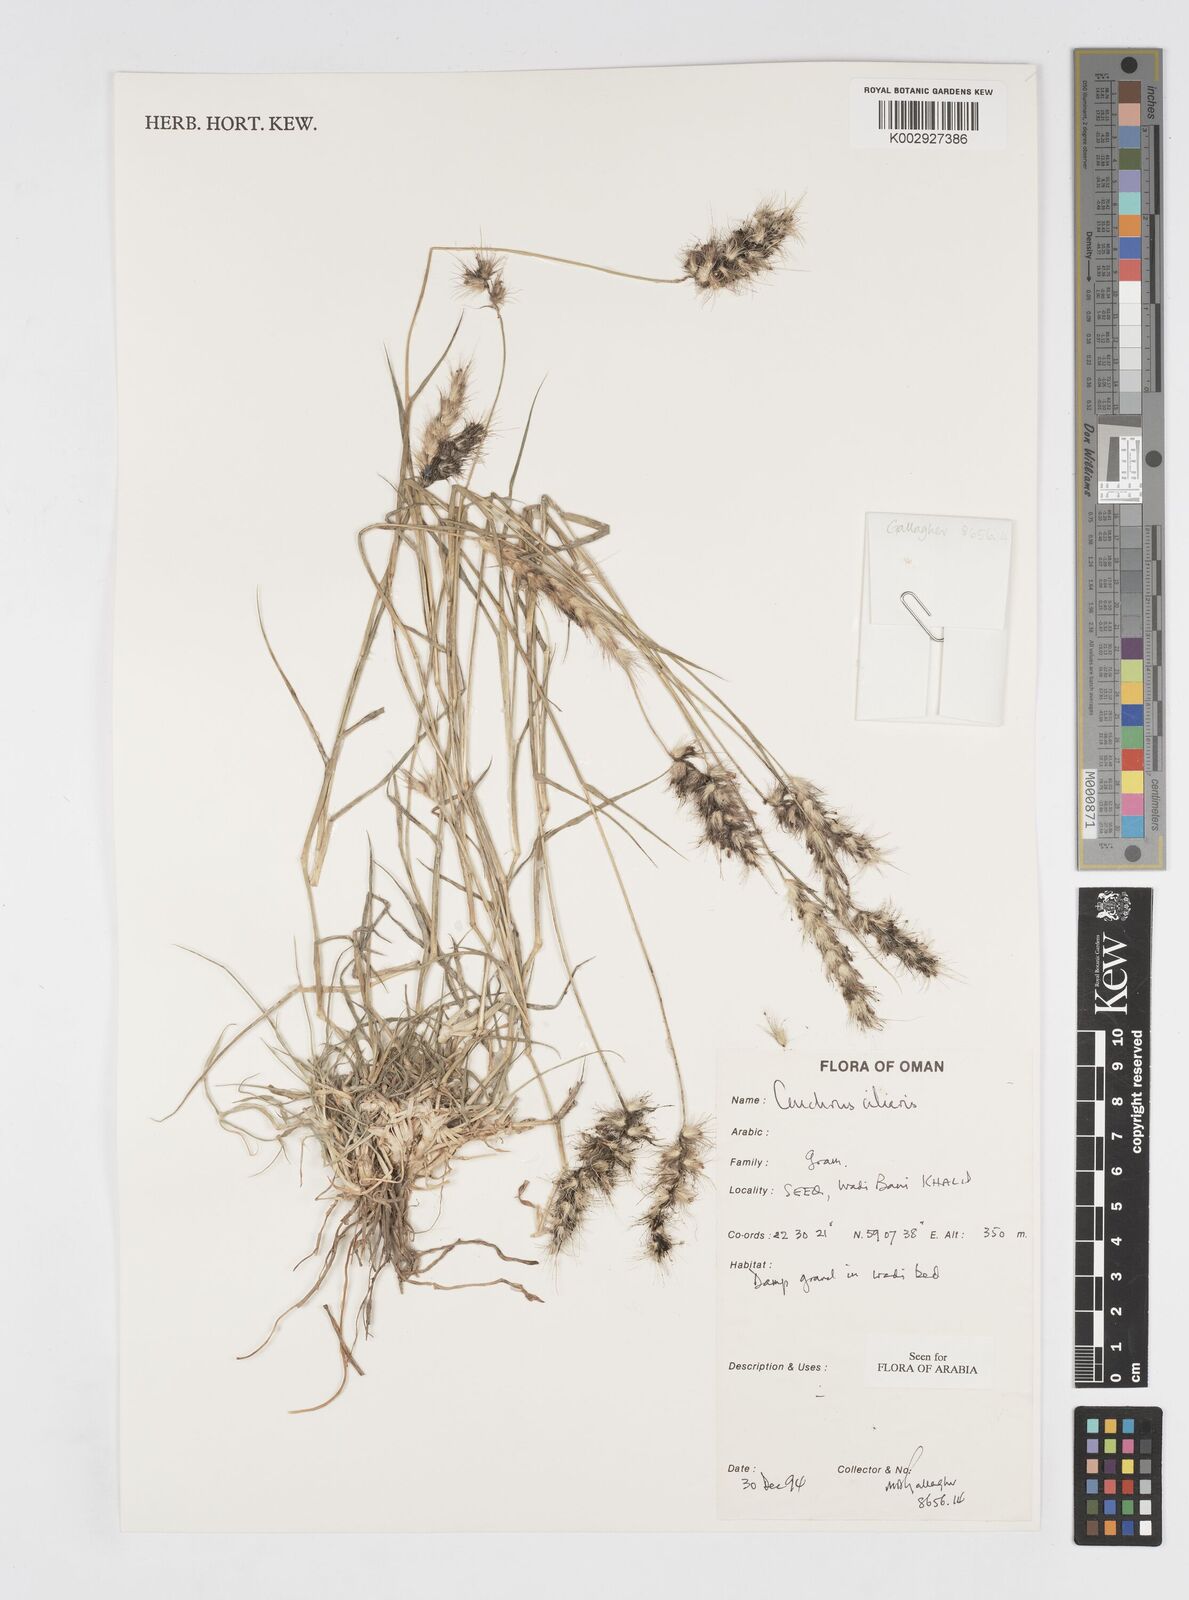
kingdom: Plantae
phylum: Tracheophyta
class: Liliopsida
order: Poales
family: Poaceae
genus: Cenchrus
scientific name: Cenchrus ciliaris
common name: Buffelgrass
